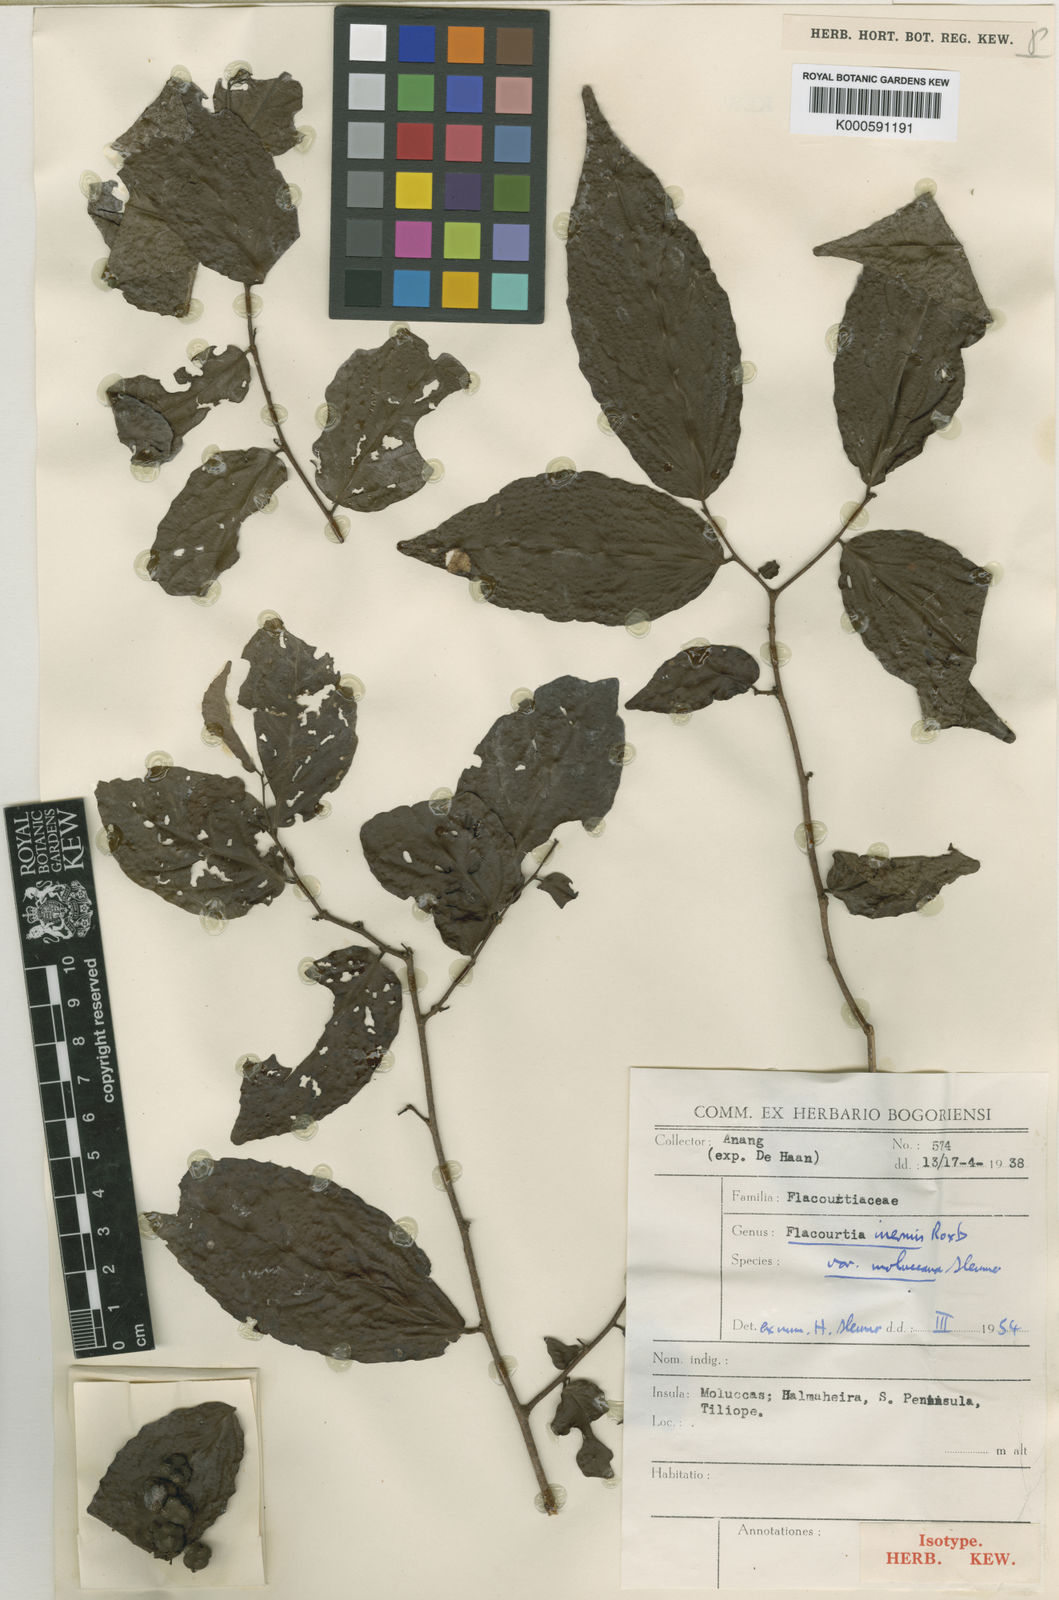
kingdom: Plantae
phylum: Tracheophyta
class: Magnoliopsida
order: Malpighiales
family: Salicaceae
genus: Flacourtia
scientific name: Flacourtia inermis
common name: Plum-of-martinique
